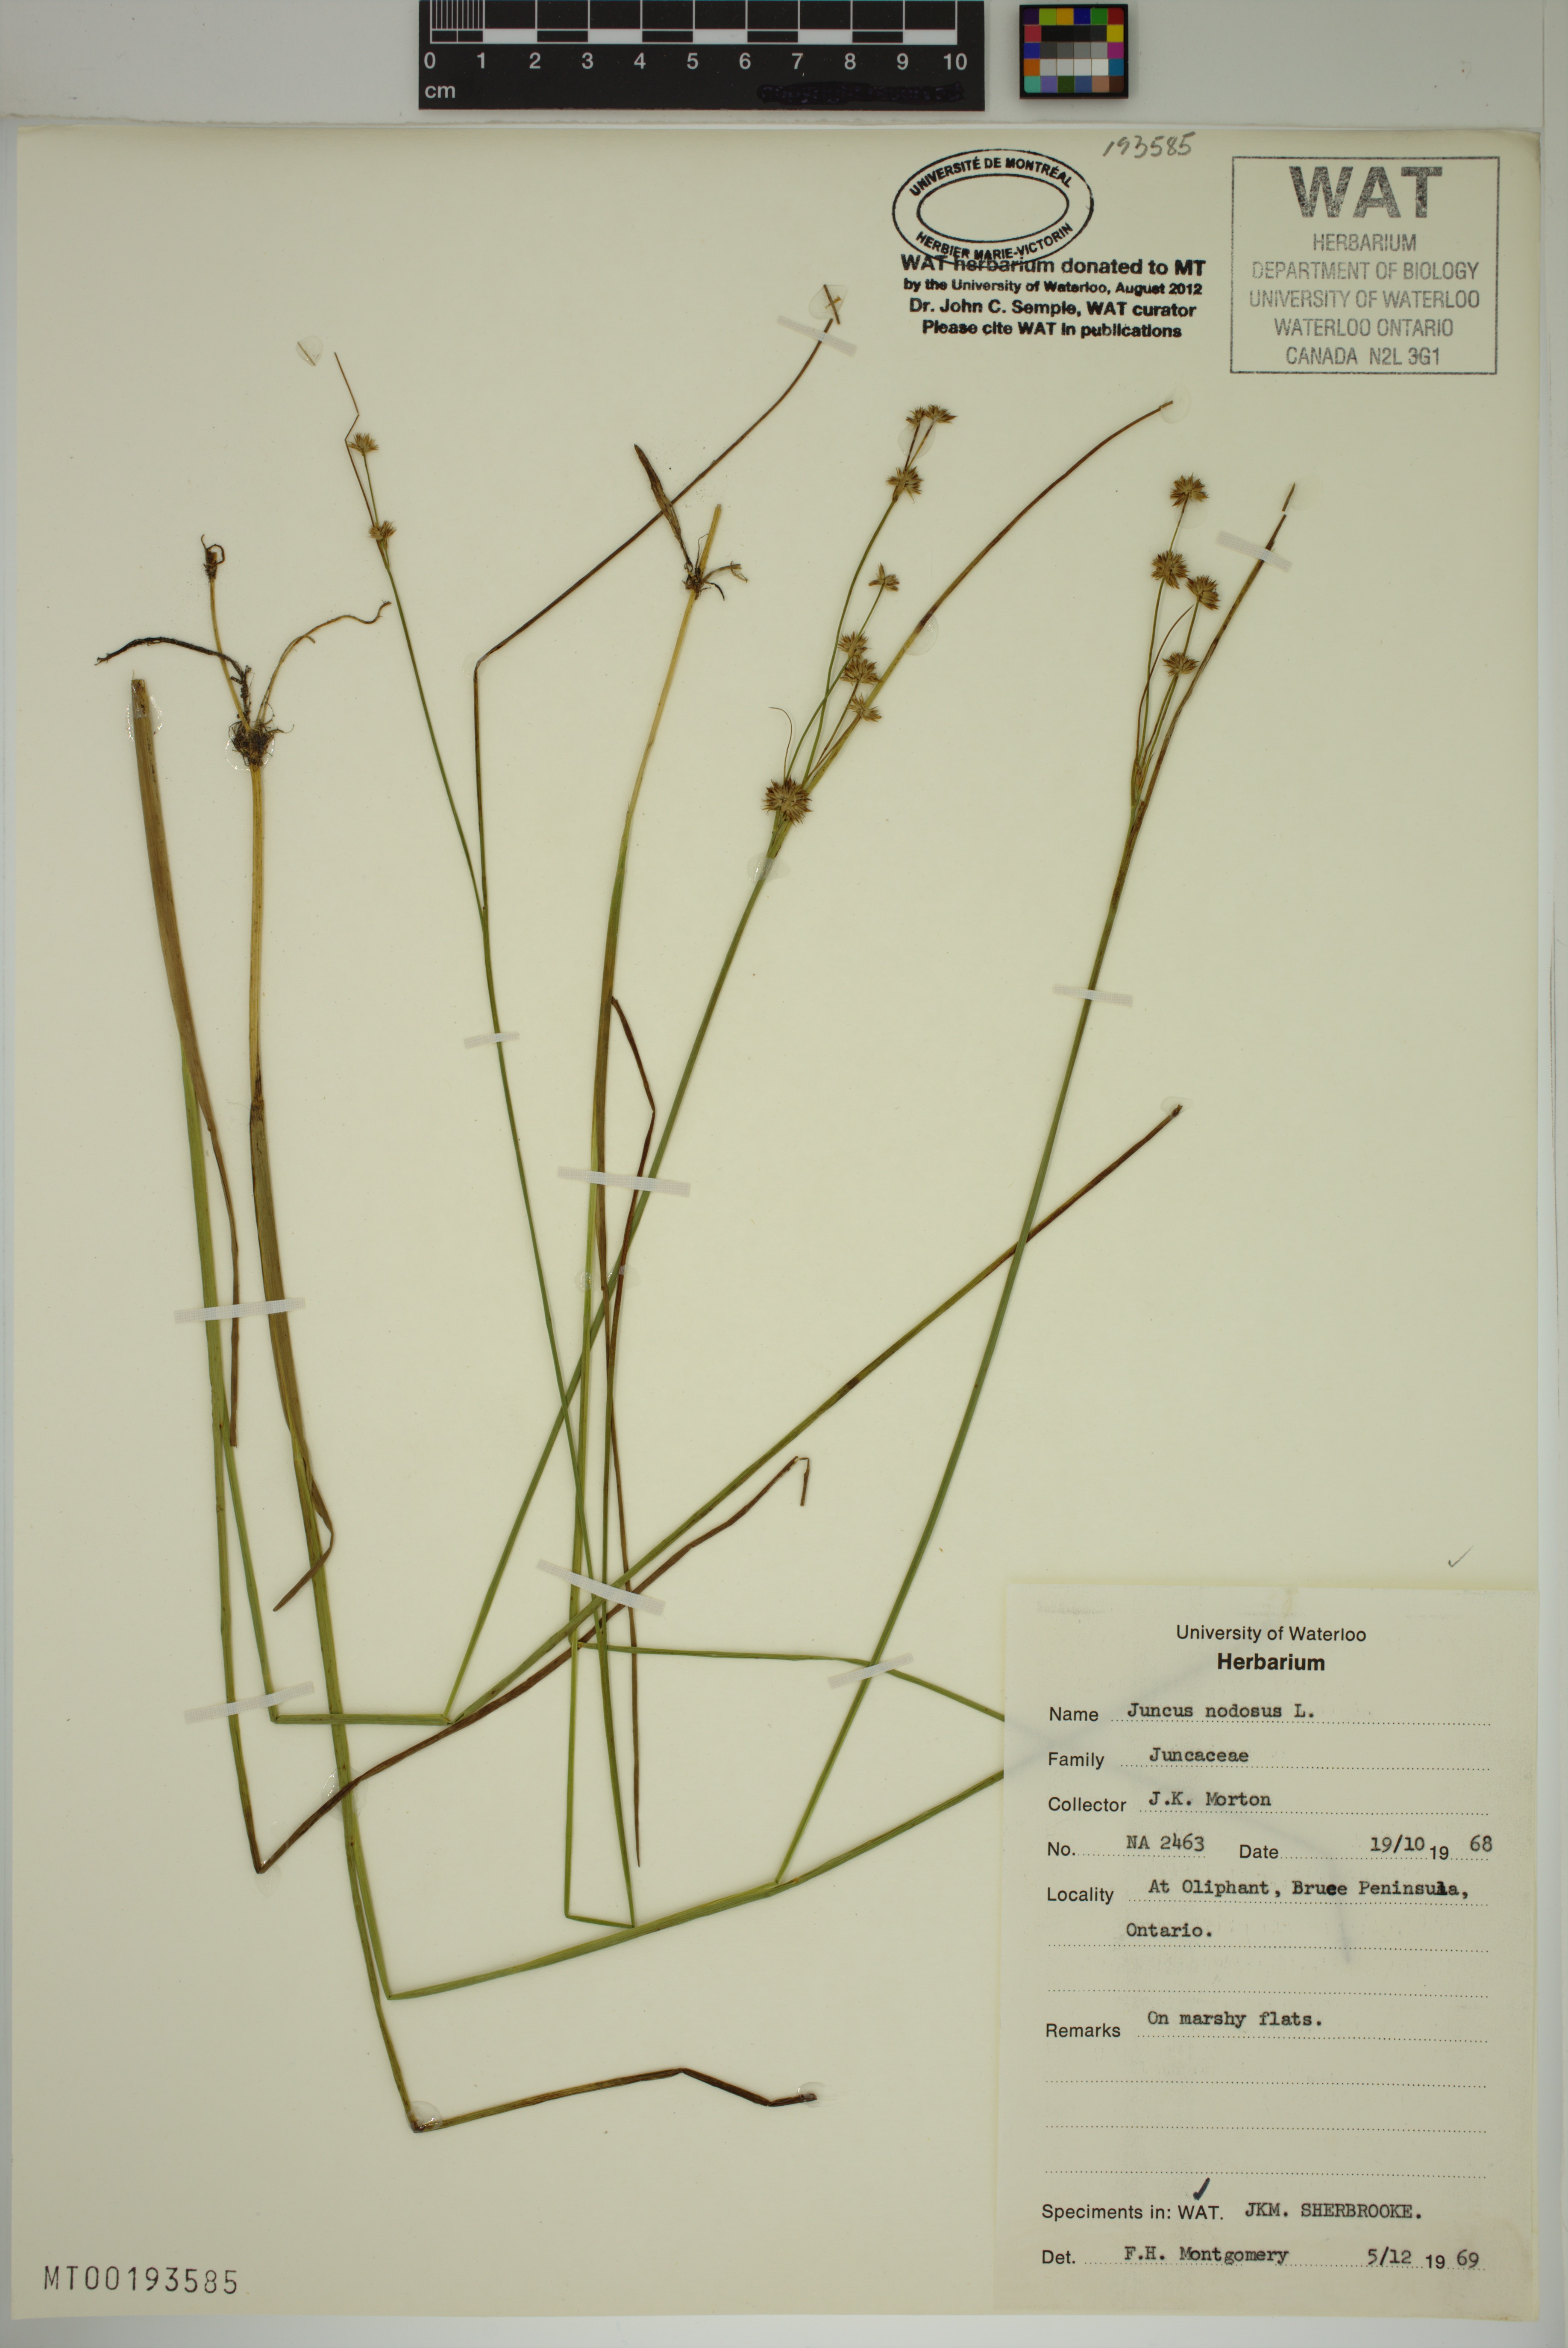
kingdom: Plantae
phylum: Tracheophyta
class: Liliopsida
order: Poales
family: Juncaceae
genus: Juncus
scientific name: Juncus nodosus
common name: Knotted rush
